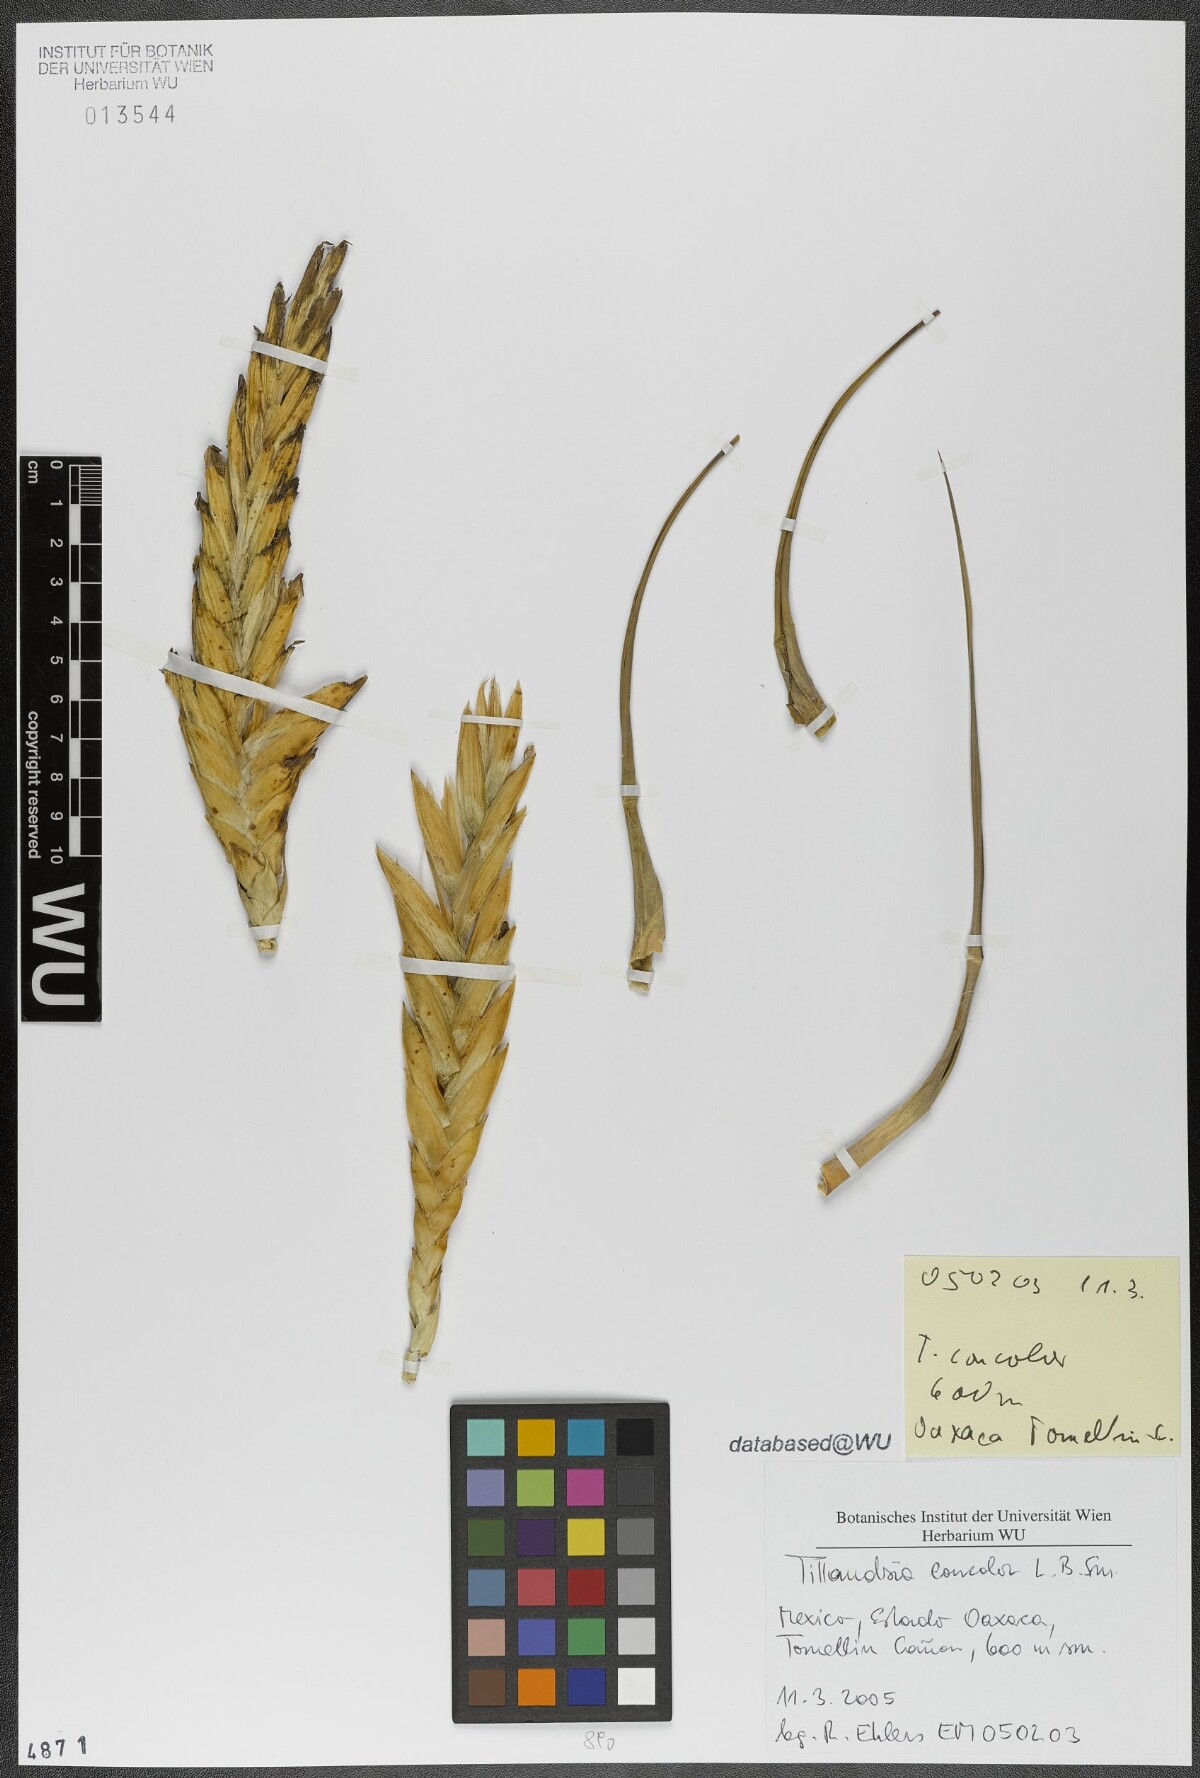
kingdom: Plantae
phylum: Tracheophyta
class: Liliopsida
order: Poales
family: Bromeliaceae
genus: Tillandsia
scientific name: Tillandsia concolor
